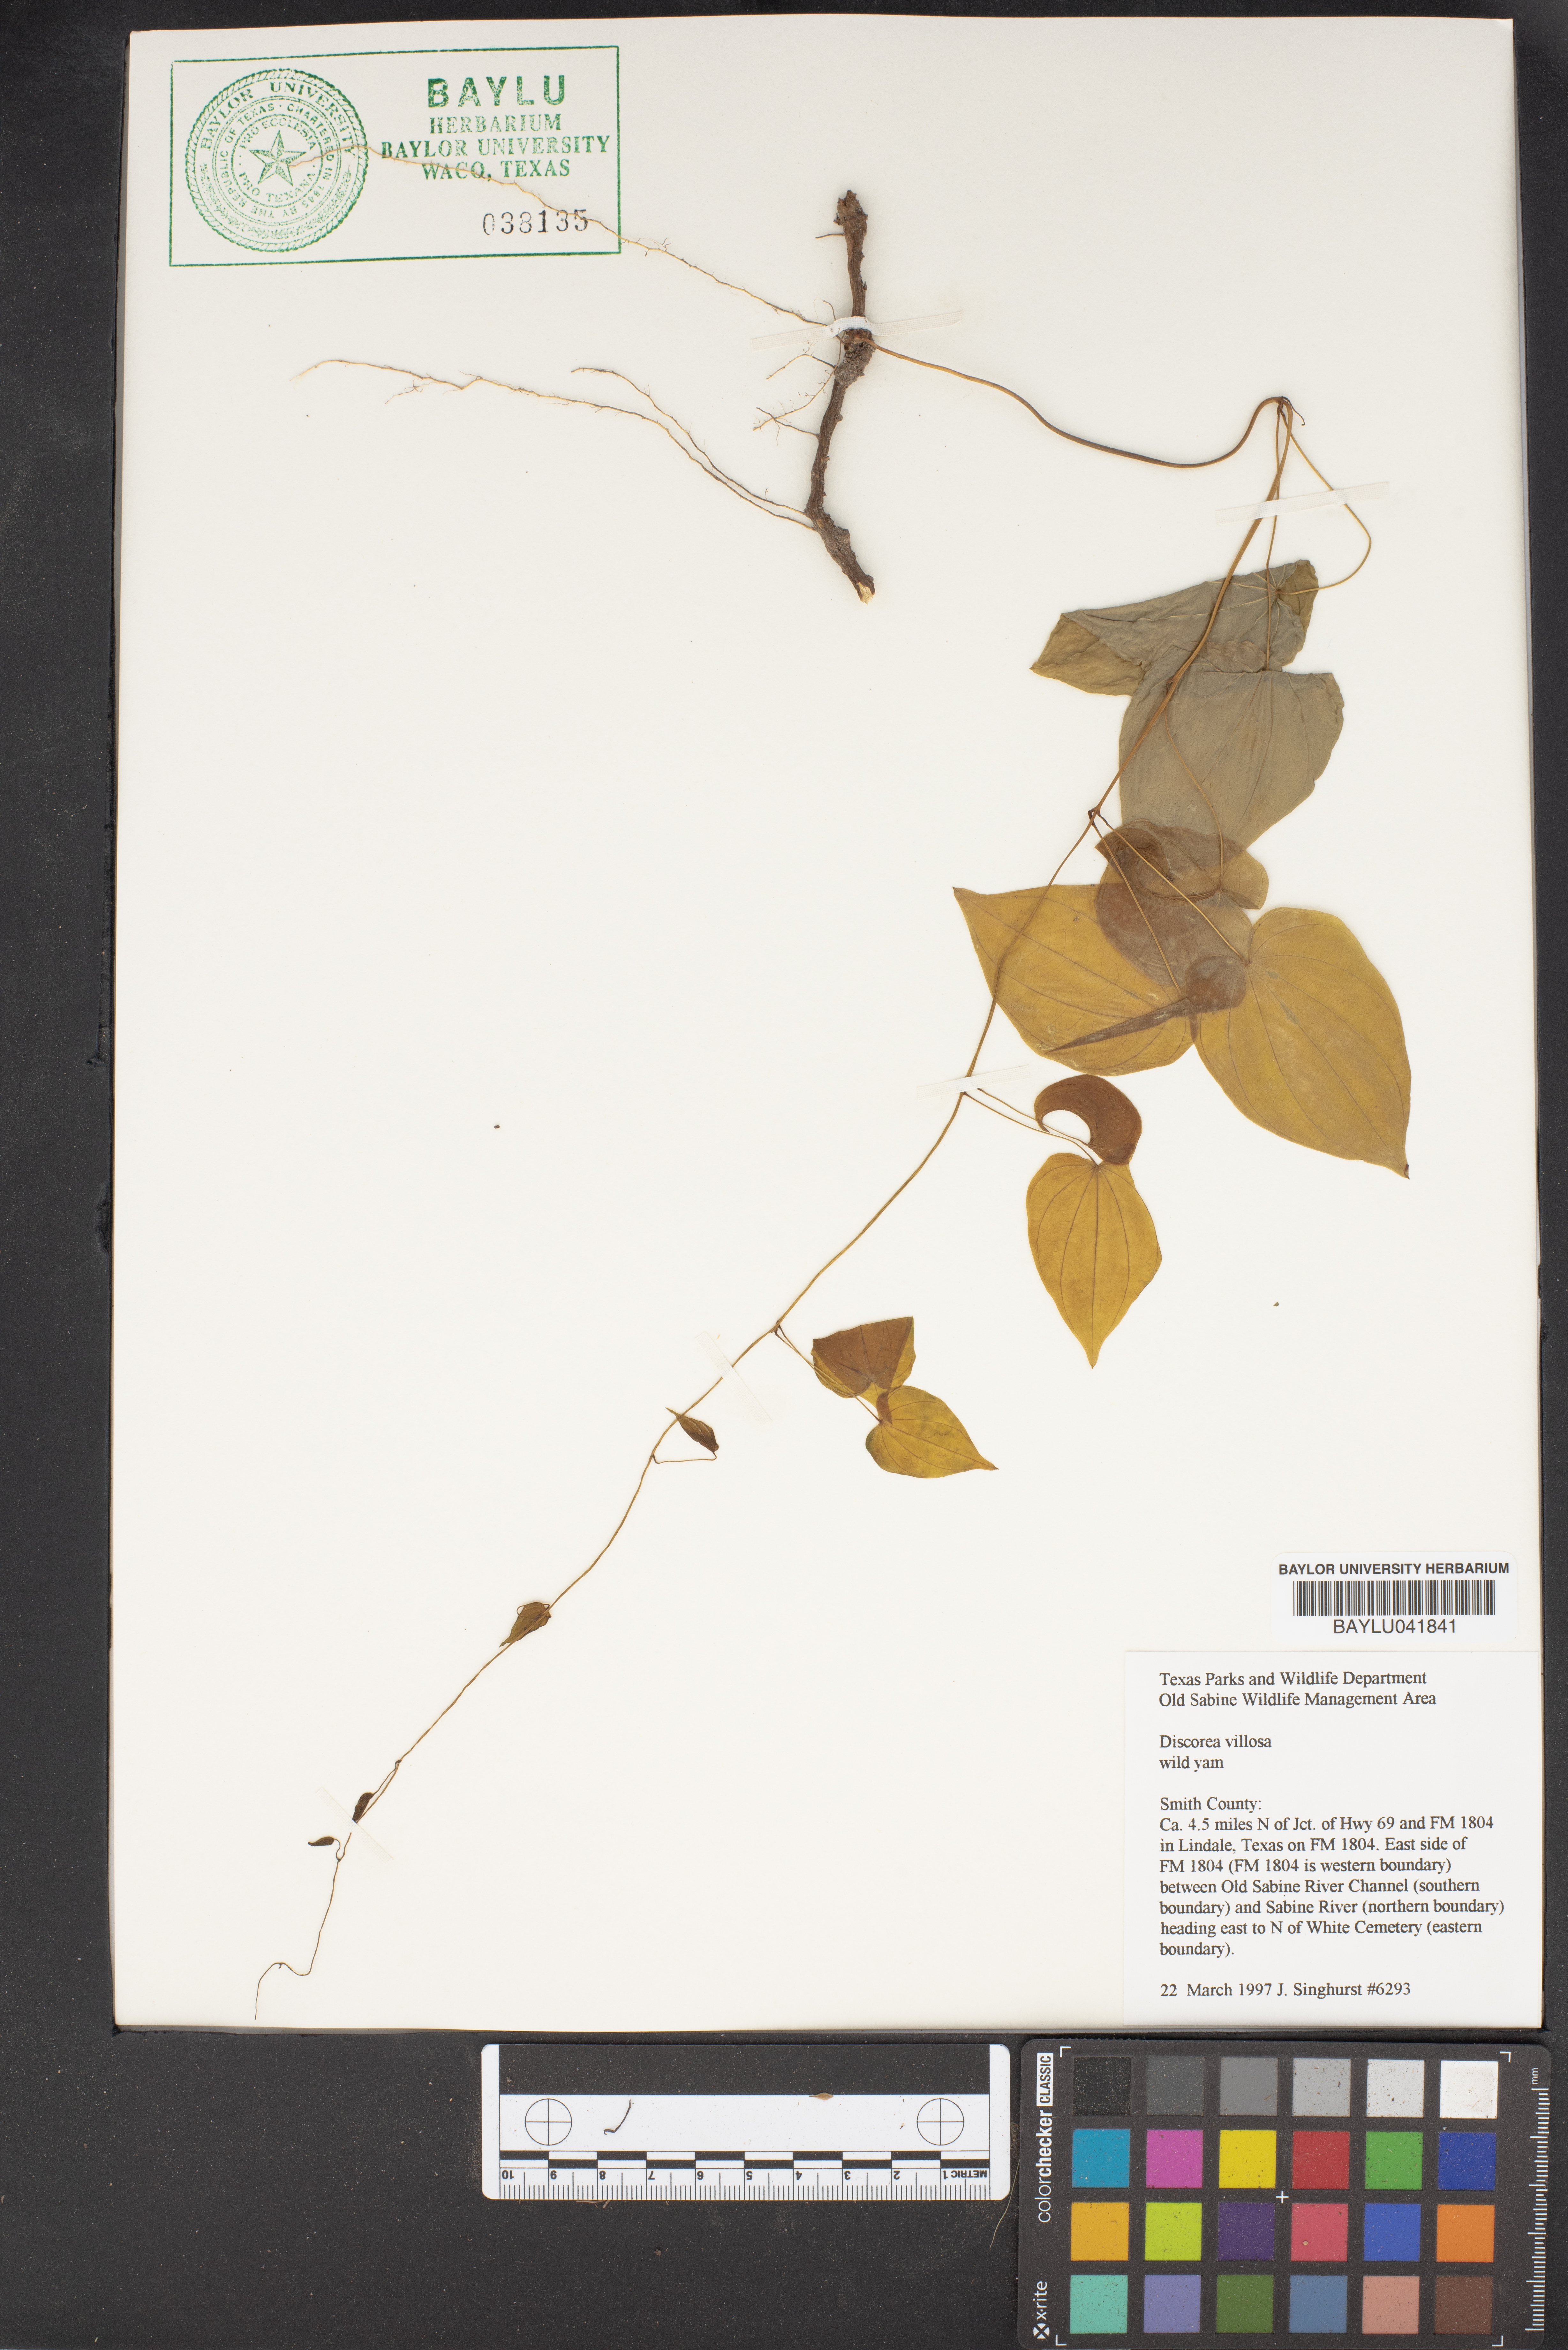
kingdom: Plantae
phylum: Tracheophyta
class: Liliopsida
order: Dioscoreales
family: Dioscoreaceae
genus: Dioscorea
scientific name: Dioscorea villosa
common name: Wild yam
